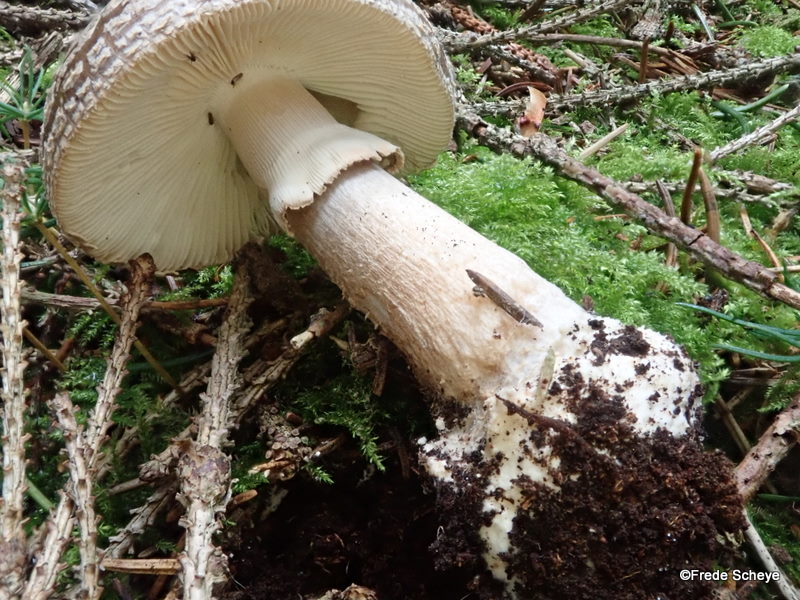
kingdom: Fungi
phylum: Basidiomycota
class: Agaricomycetes
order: Agaricales
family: Amanitaceae
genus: Amanita
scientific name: Amanita
